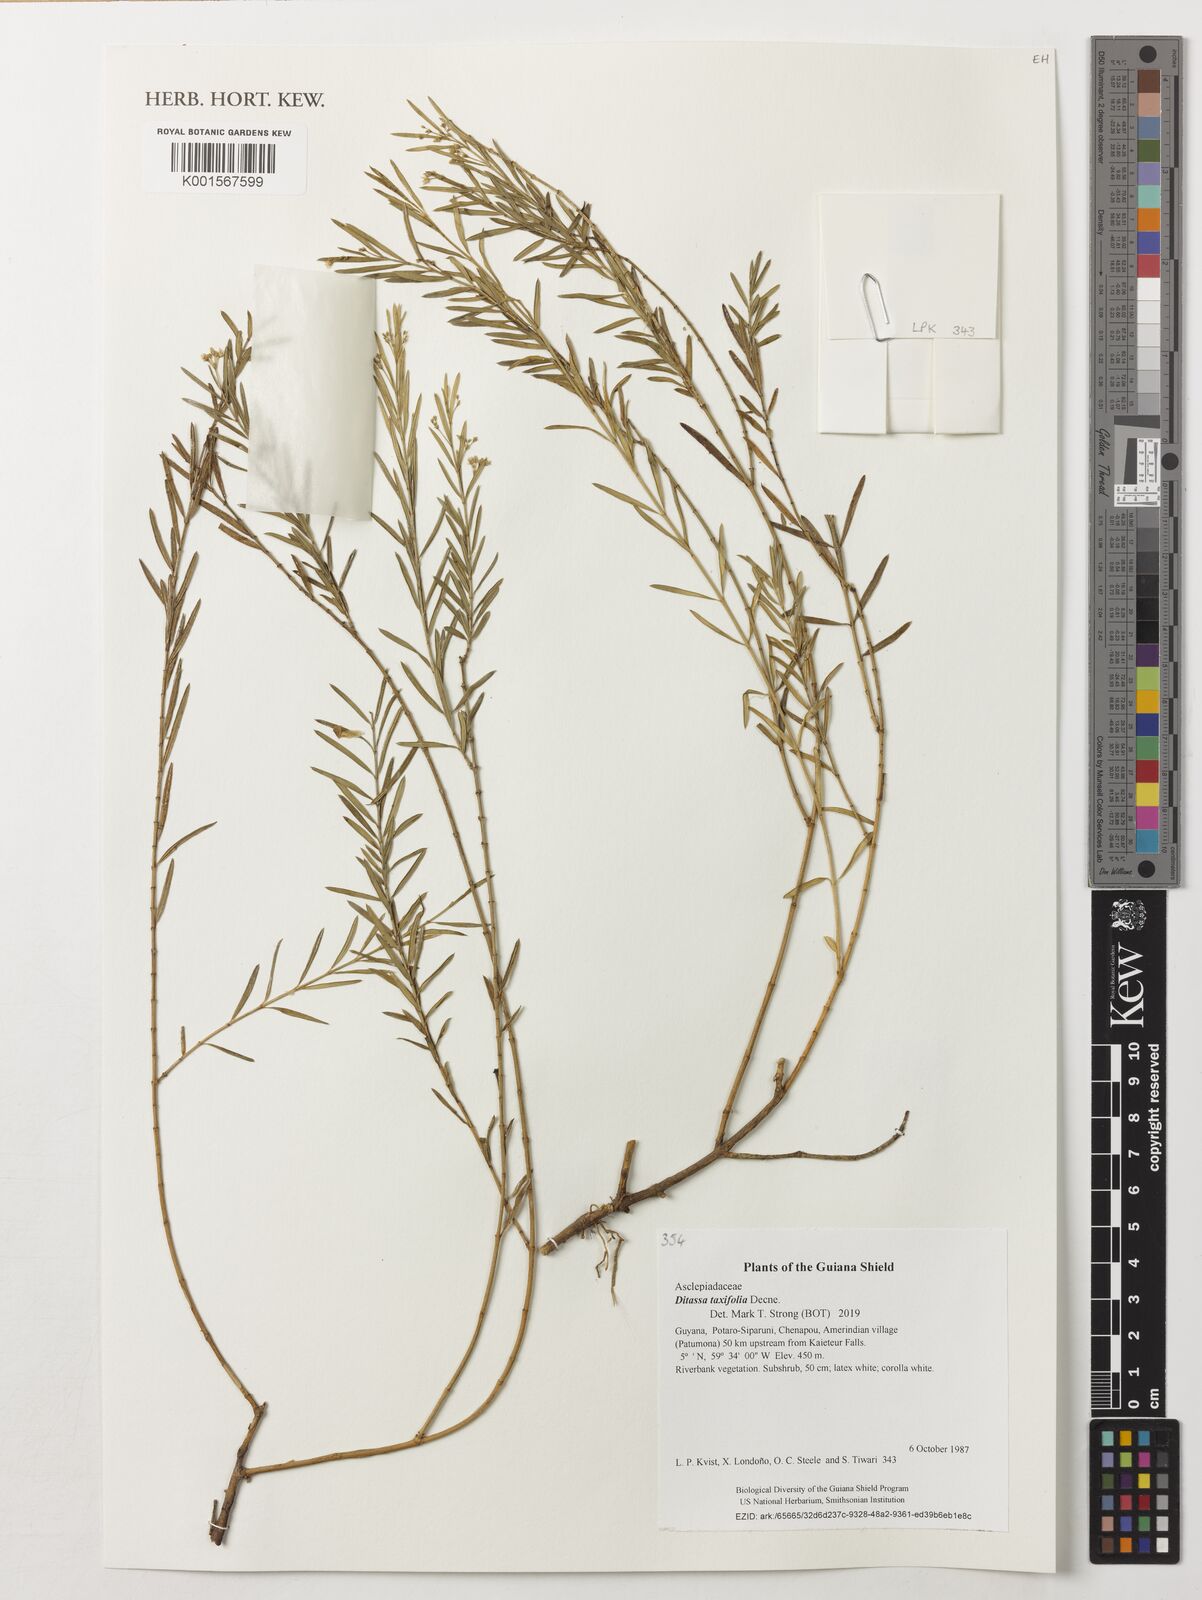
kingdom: Plantae
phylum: Tracheophyta
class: Magnoliopsida
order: Gentianales
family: Apocynaceae
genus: Ditassa
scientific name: Ditassa taxifolia
